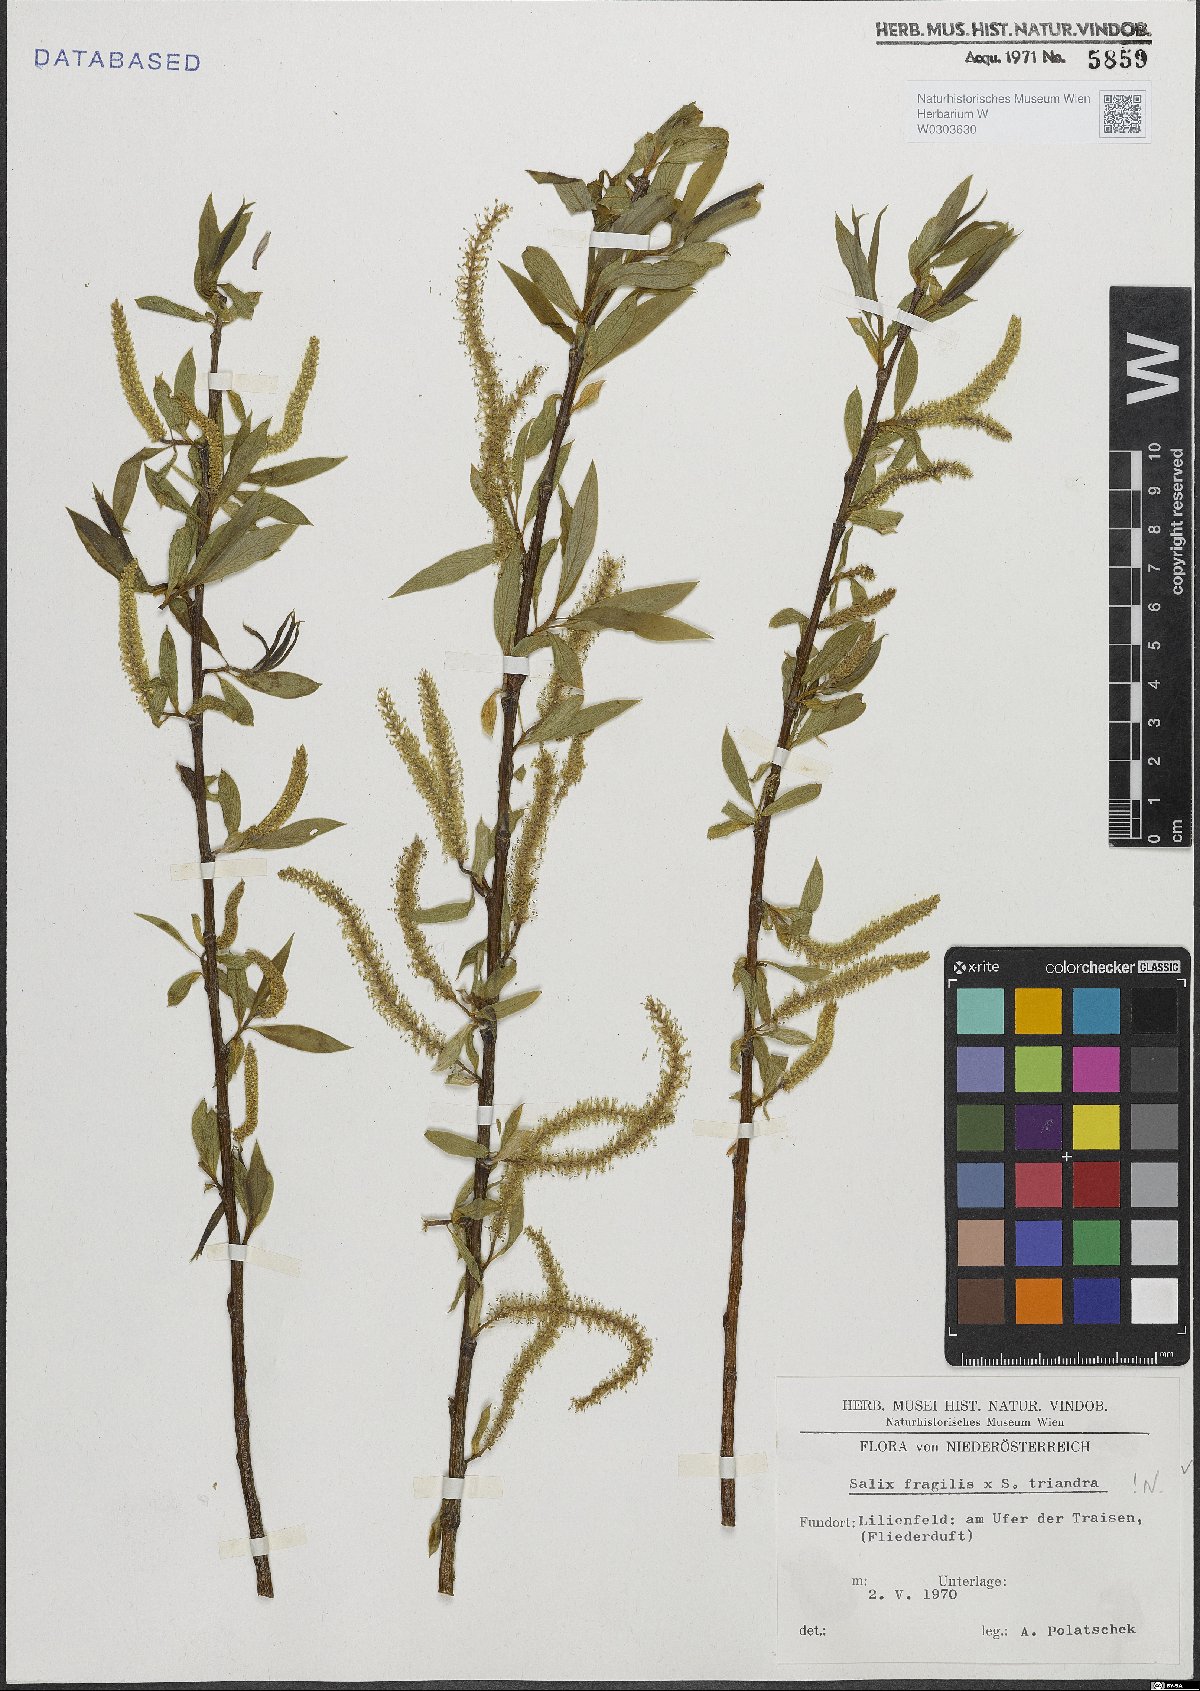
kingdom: Plantae
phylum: Tracheophyta
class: Magnoliopsida
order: Malpighiales
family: Salicaceae
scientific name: Salicaceae
